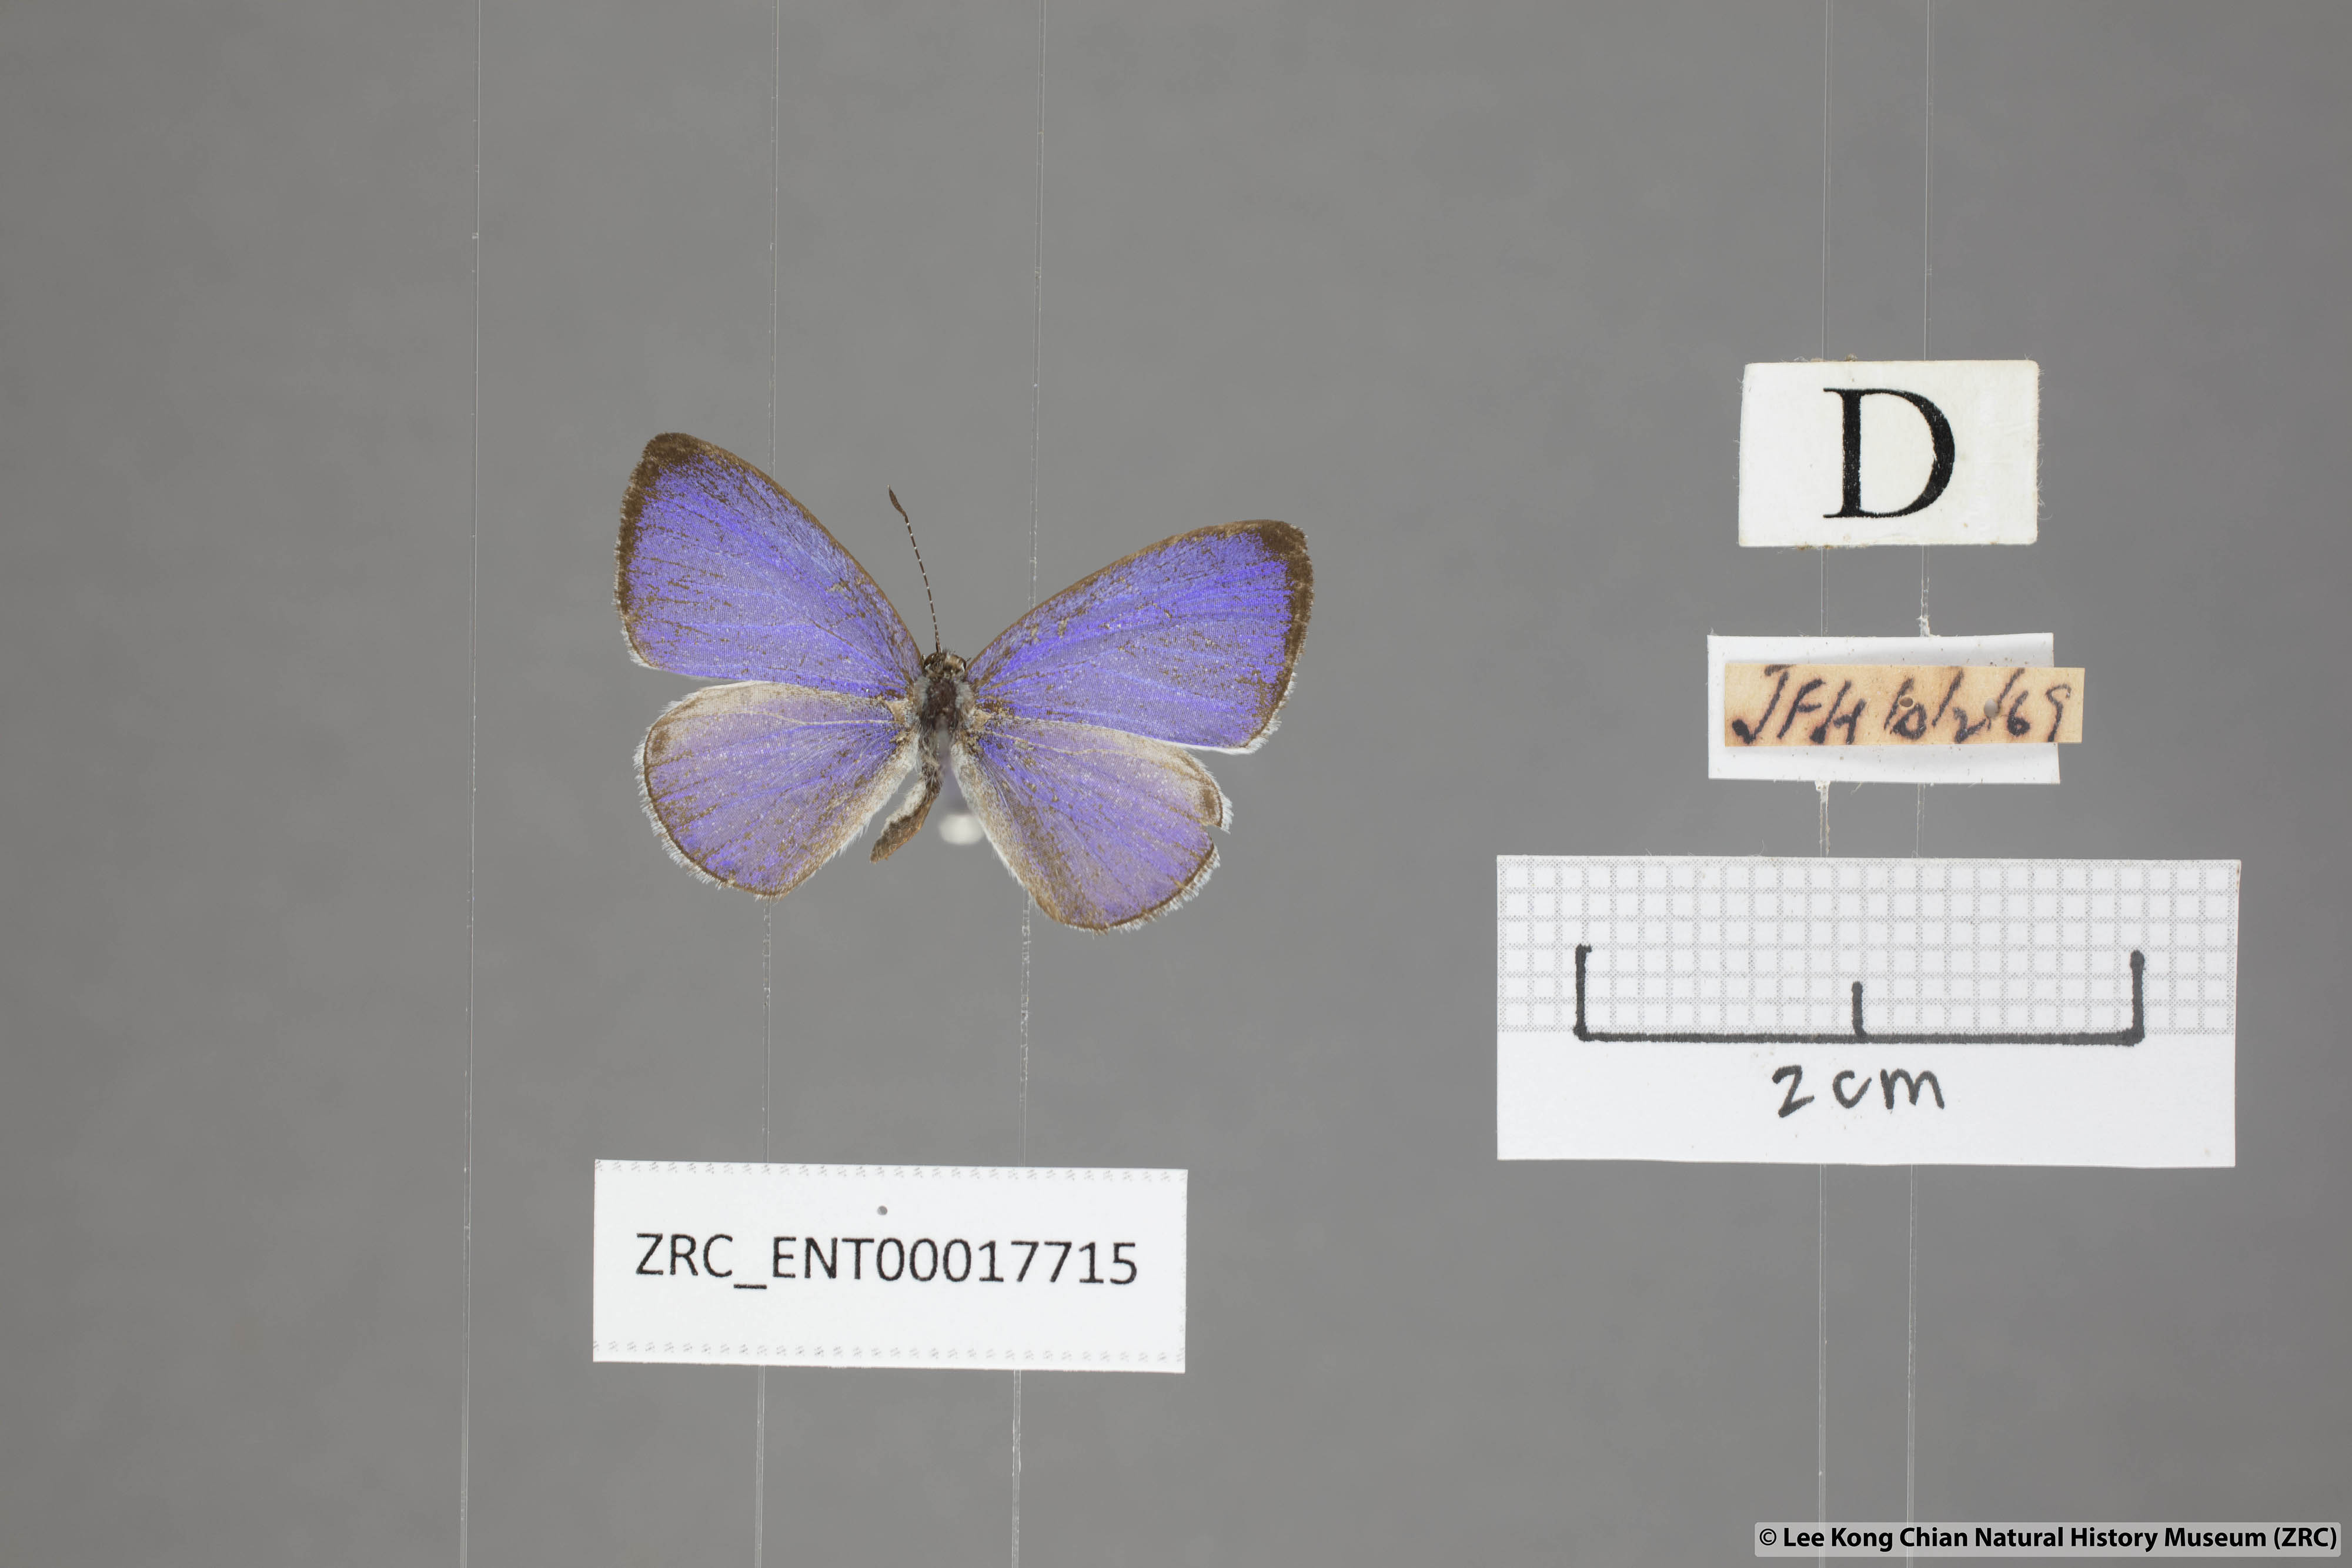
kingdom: Animalia
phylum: Arthropoda
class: Insecta
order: Lepidoptera
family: Lycaenidae
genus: Udara
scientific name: Udara
